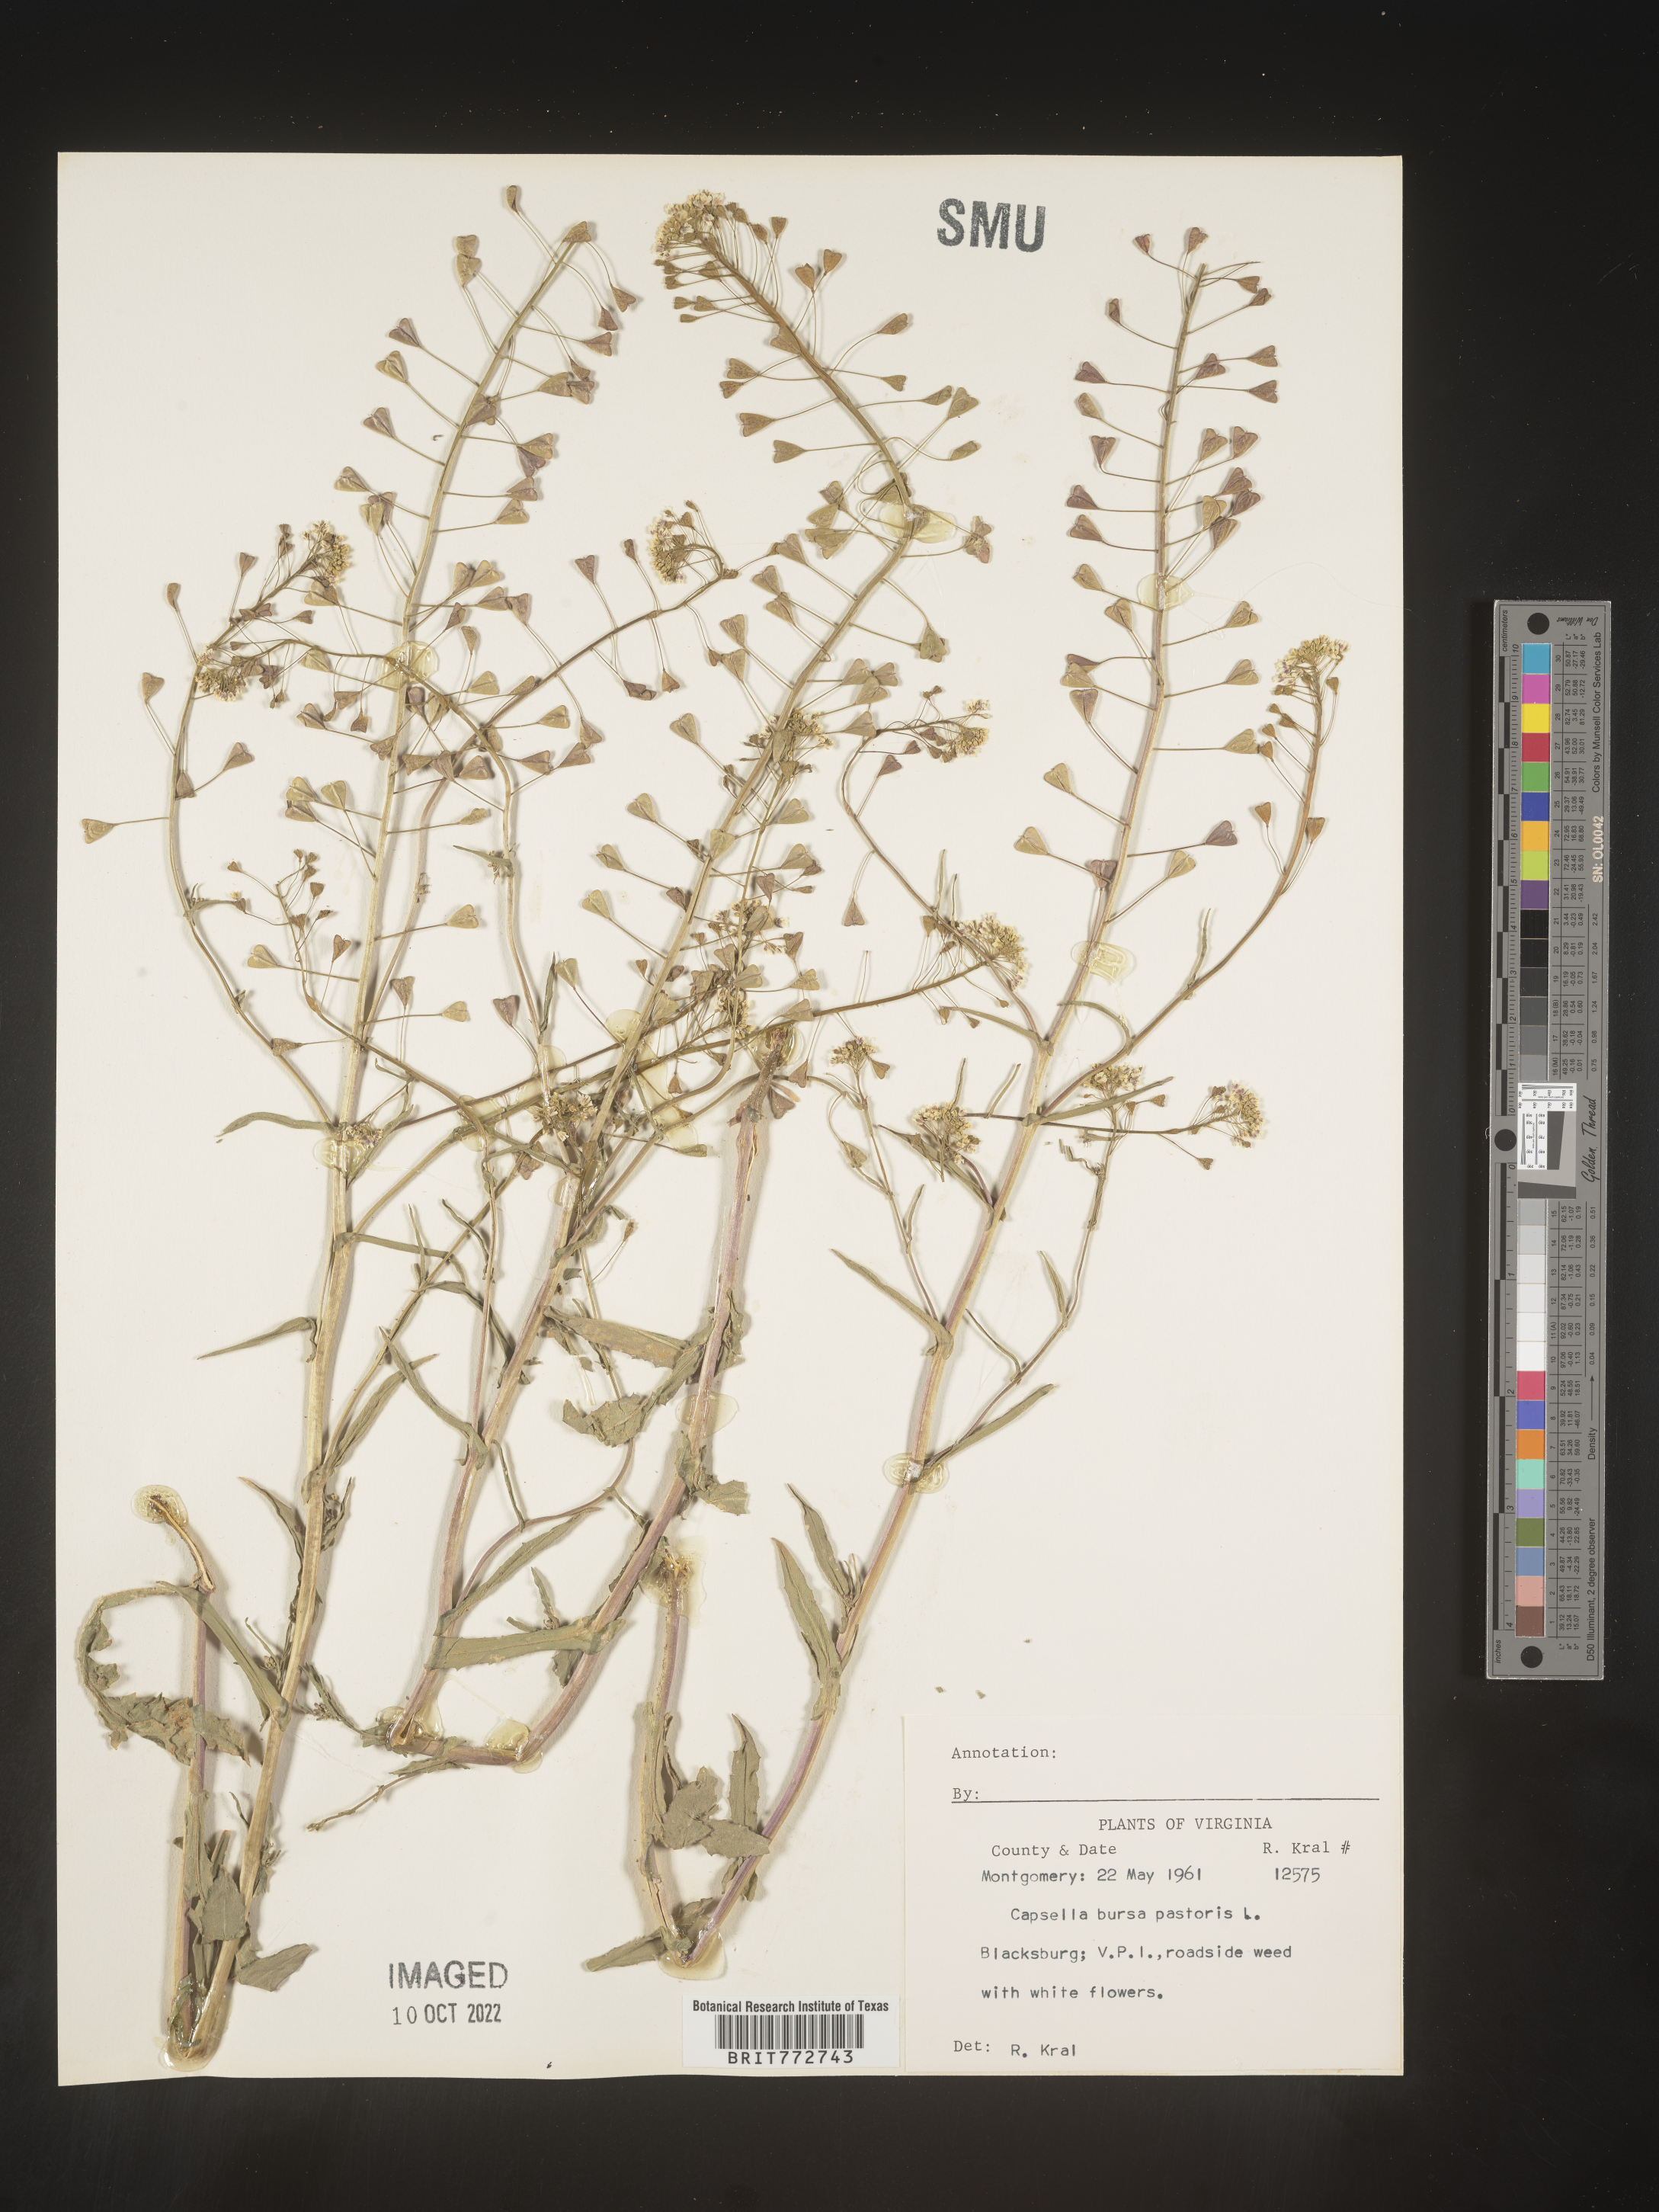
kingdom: Plantae
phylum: Tracheophyta
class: Magnoliopsida
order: Brassicales
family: Brassicaceae
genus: Capsella
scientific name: Capsella bursa-pastoris
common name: Shepherd's purse
